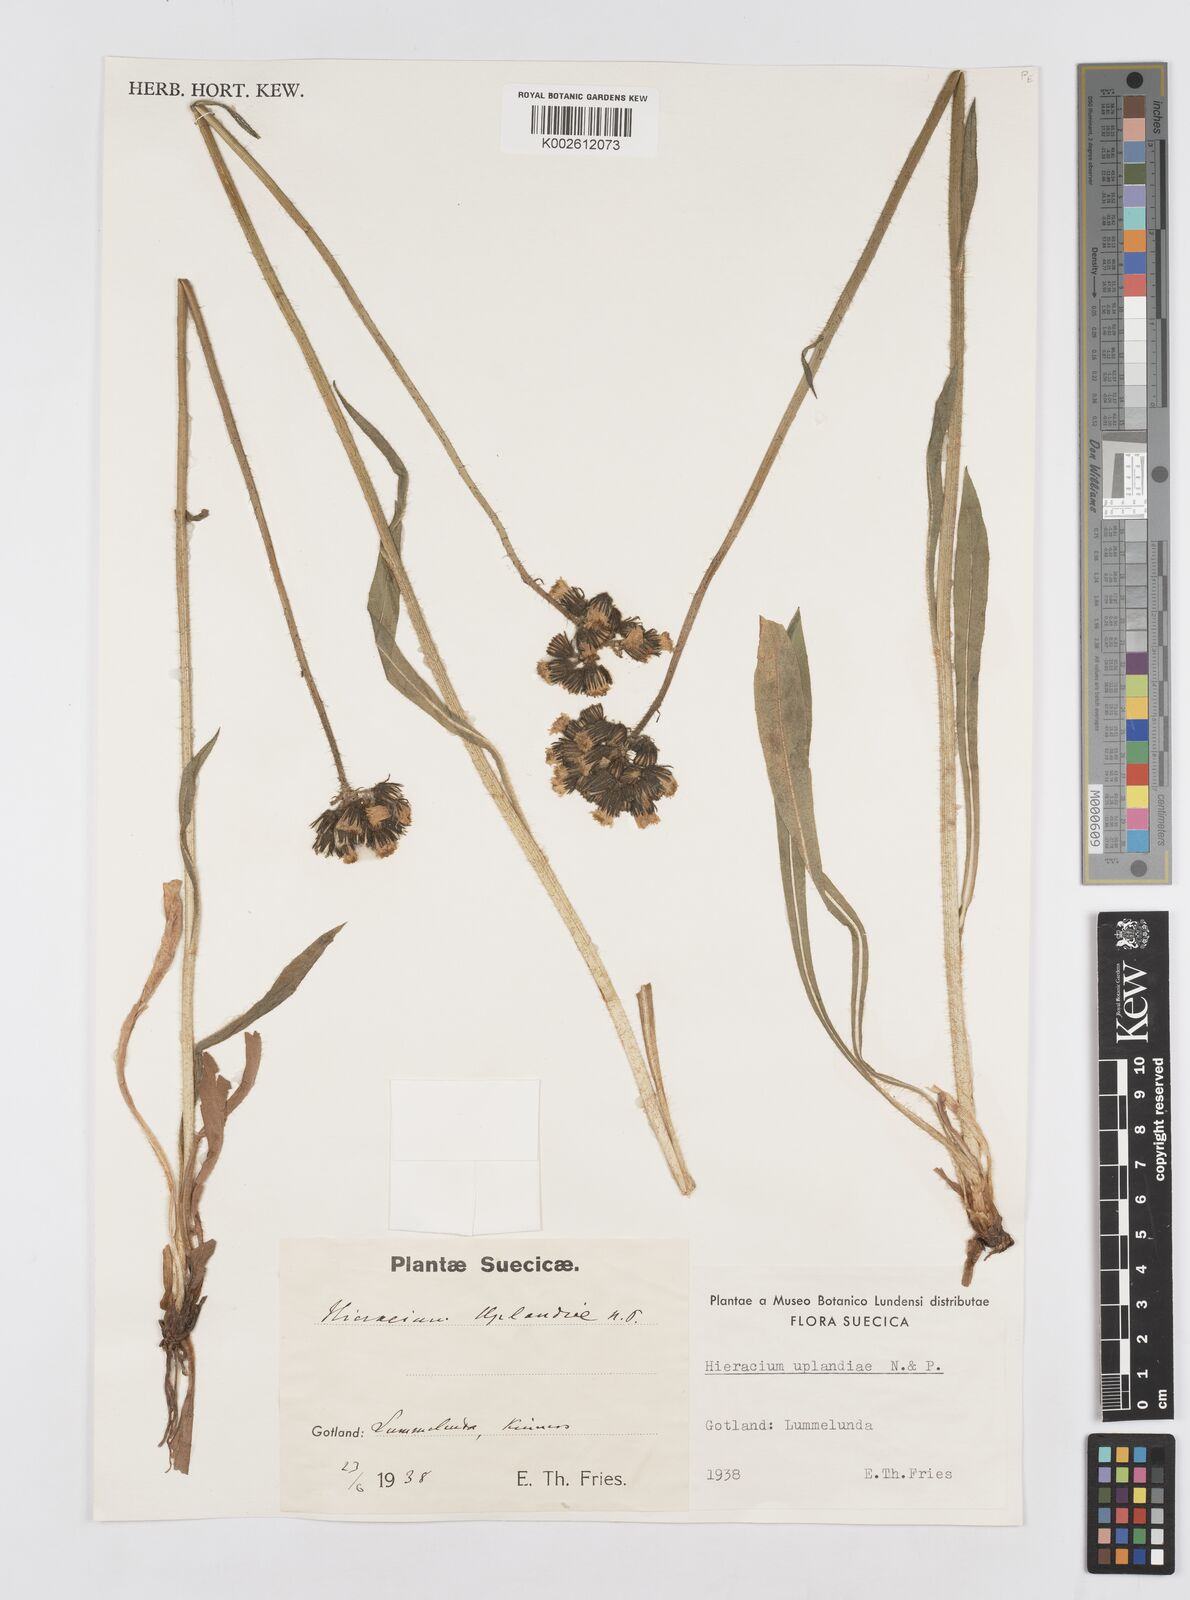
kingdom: Plantae
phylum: Tracheophyta
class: Magnoliopsida
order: Asterales
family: Asteraceae
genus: Hieracium
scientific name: Hieracium uplandiae
